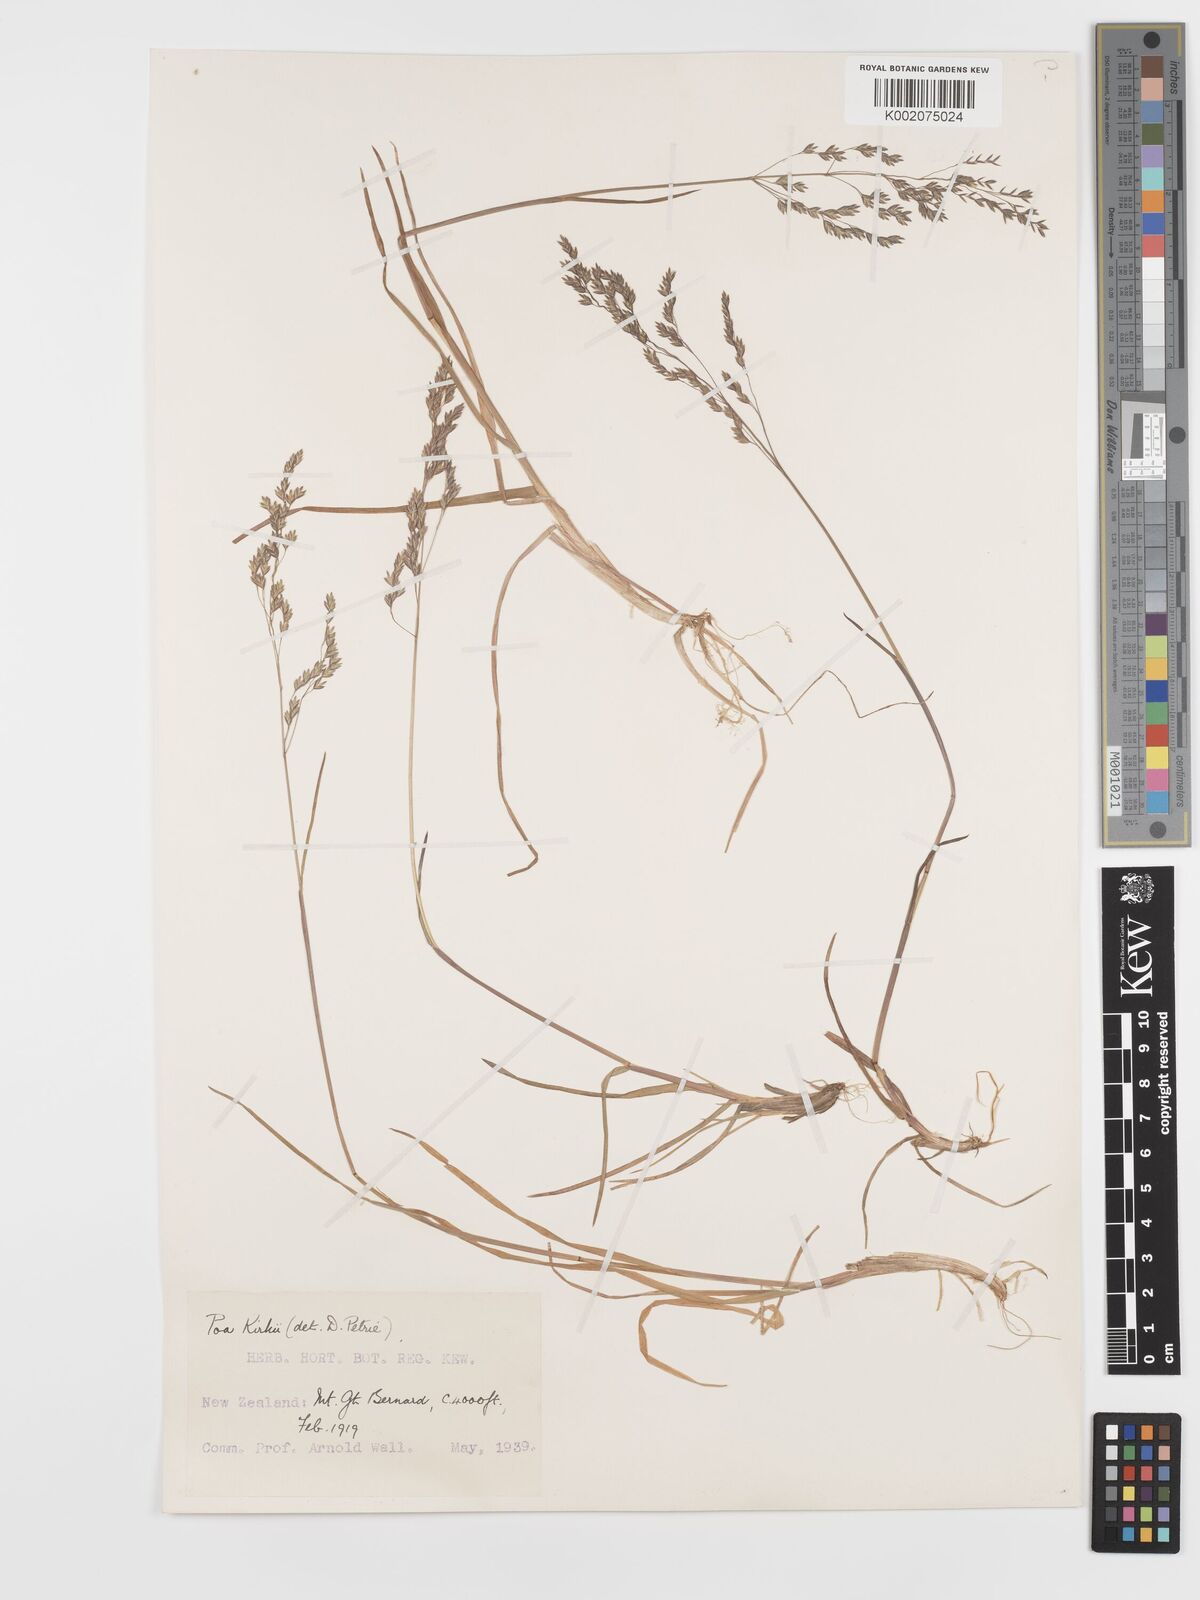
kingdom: Plantae
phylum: Tracheophyta
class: Liliopsida
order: Poales
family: Poaceae
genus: Poa
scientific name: Poa kirkii
